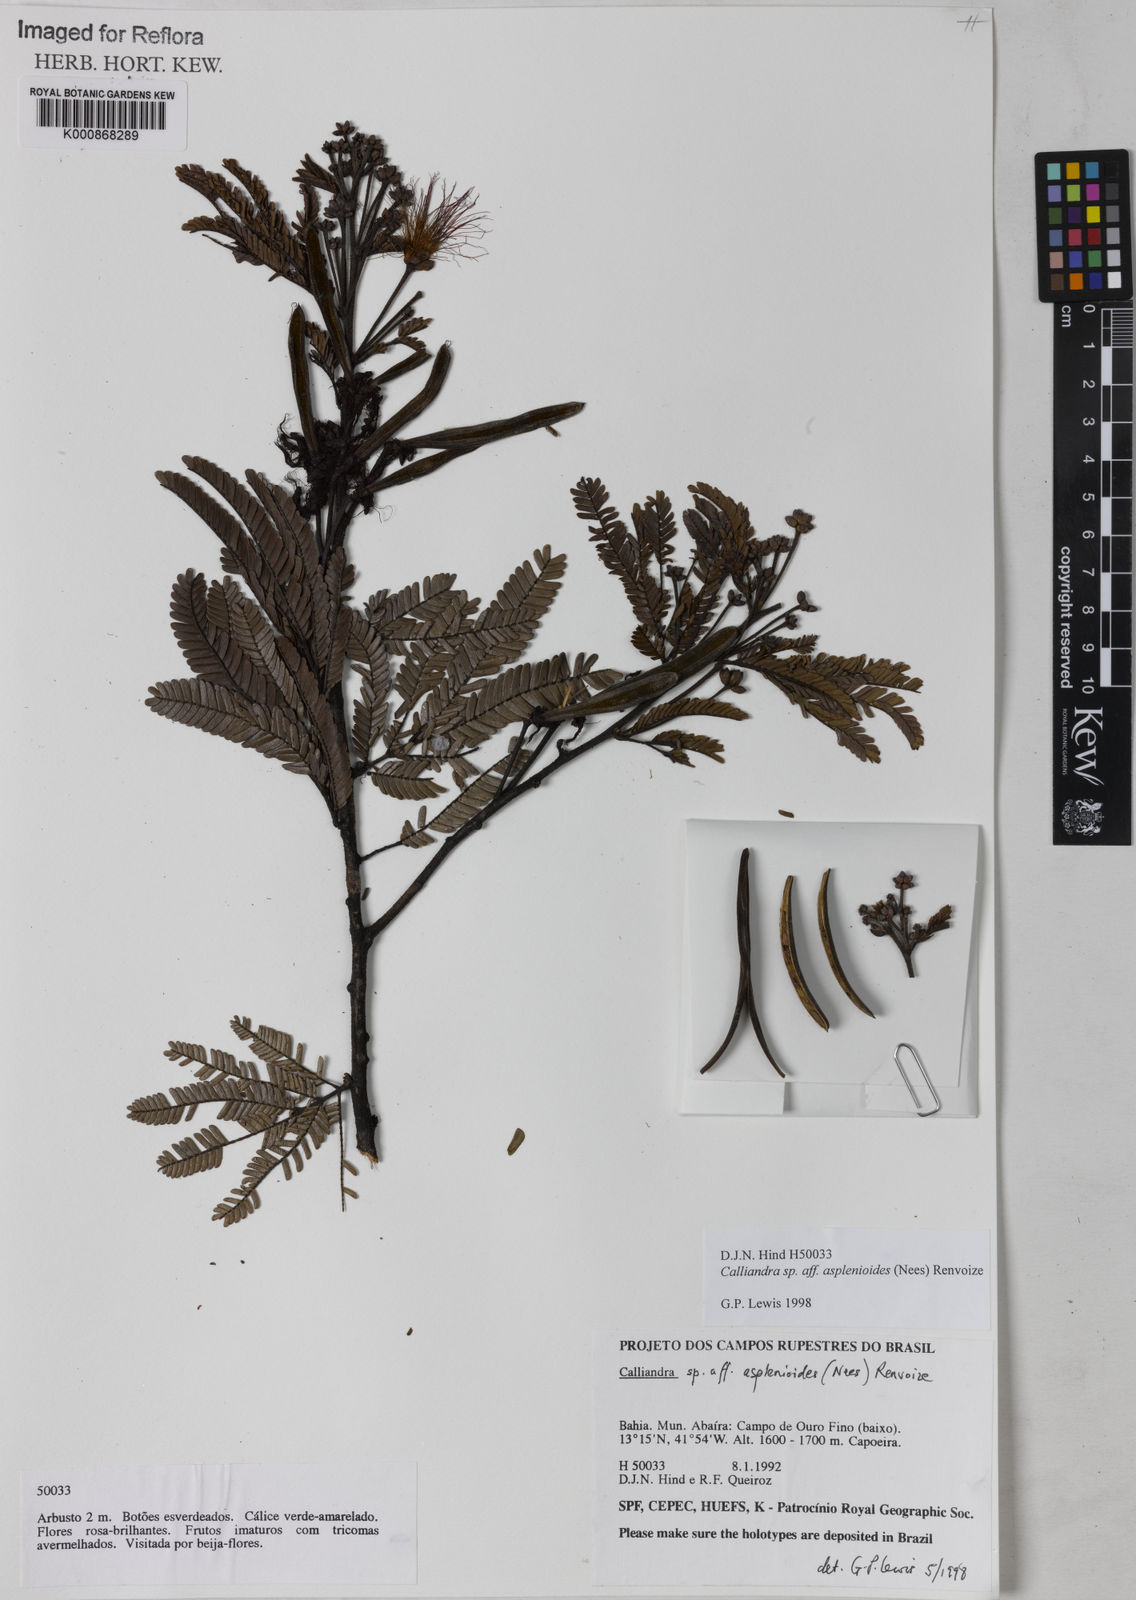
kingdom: Plantae
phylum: Tracheophyta
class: Magnoliopsida
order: Fabales
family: Fabaceae
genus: Calliandra
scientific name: Calliandra
